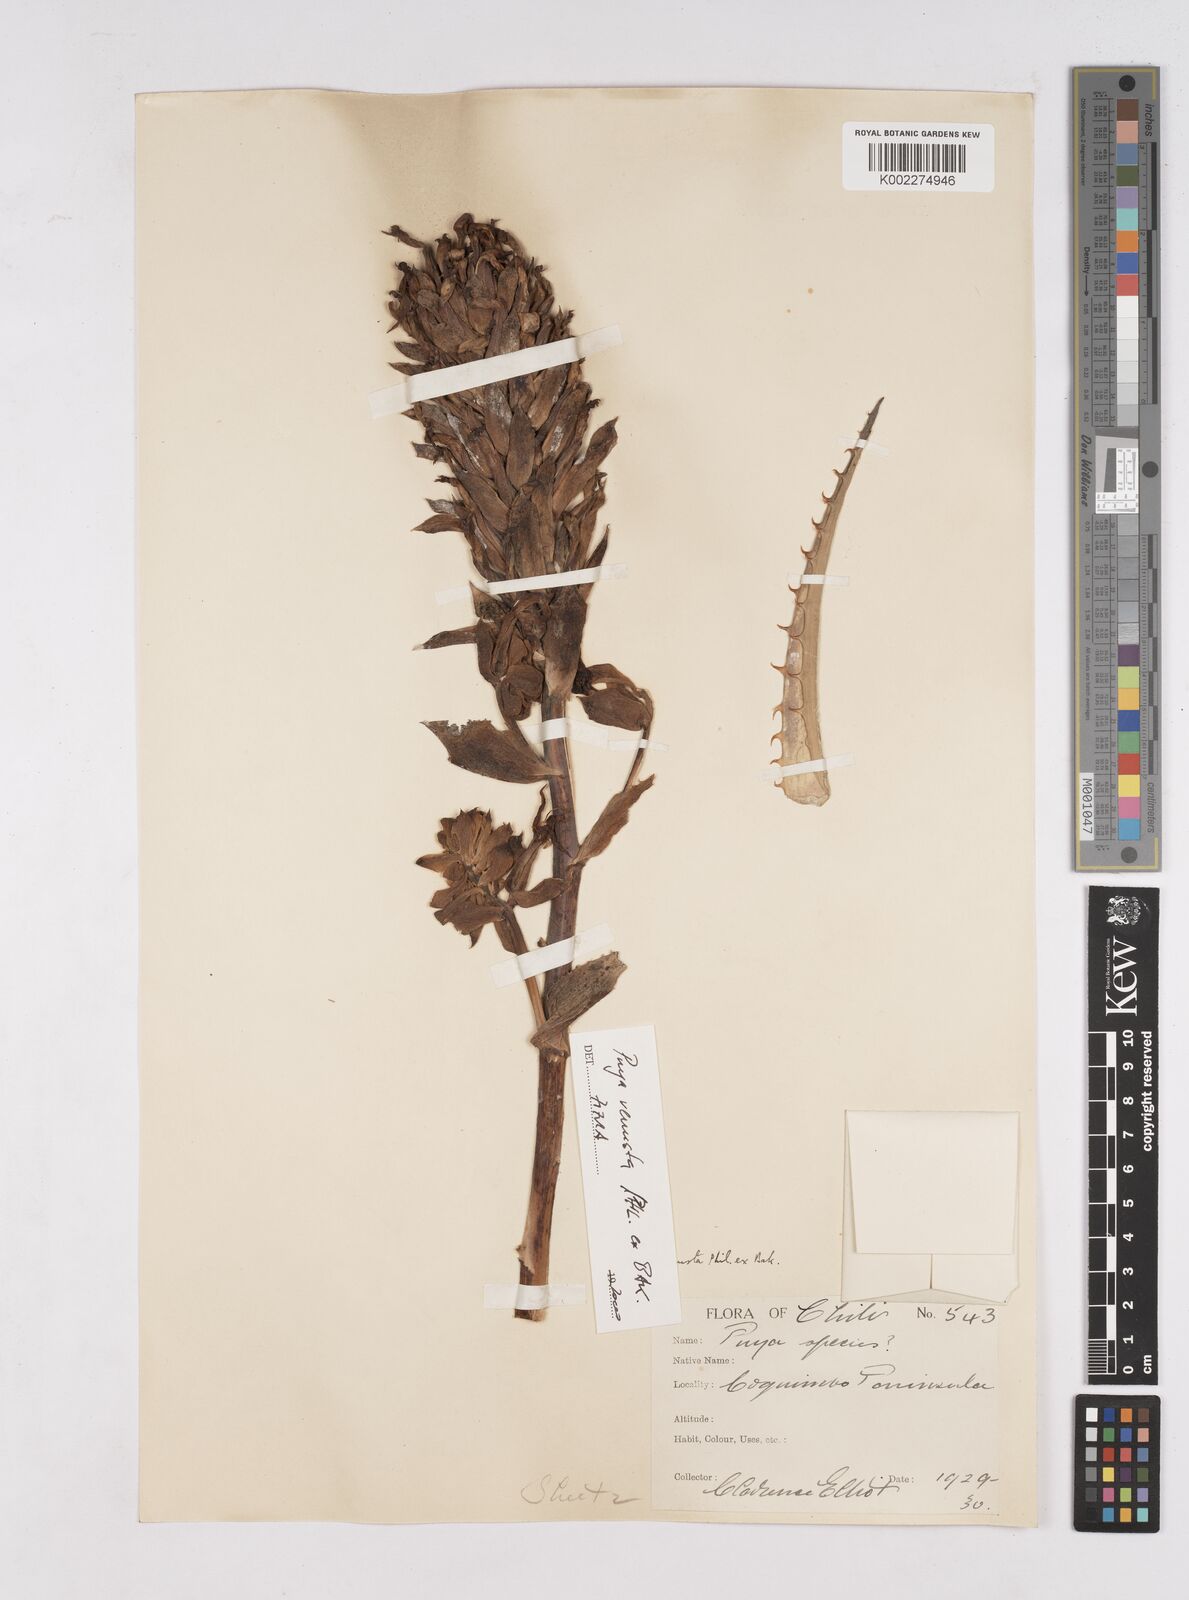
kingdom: Plantae
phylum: Tracheophyta
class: Liliopsida
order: Poales
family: Bromeliaceae
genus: Puya
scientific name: Puya venusta
